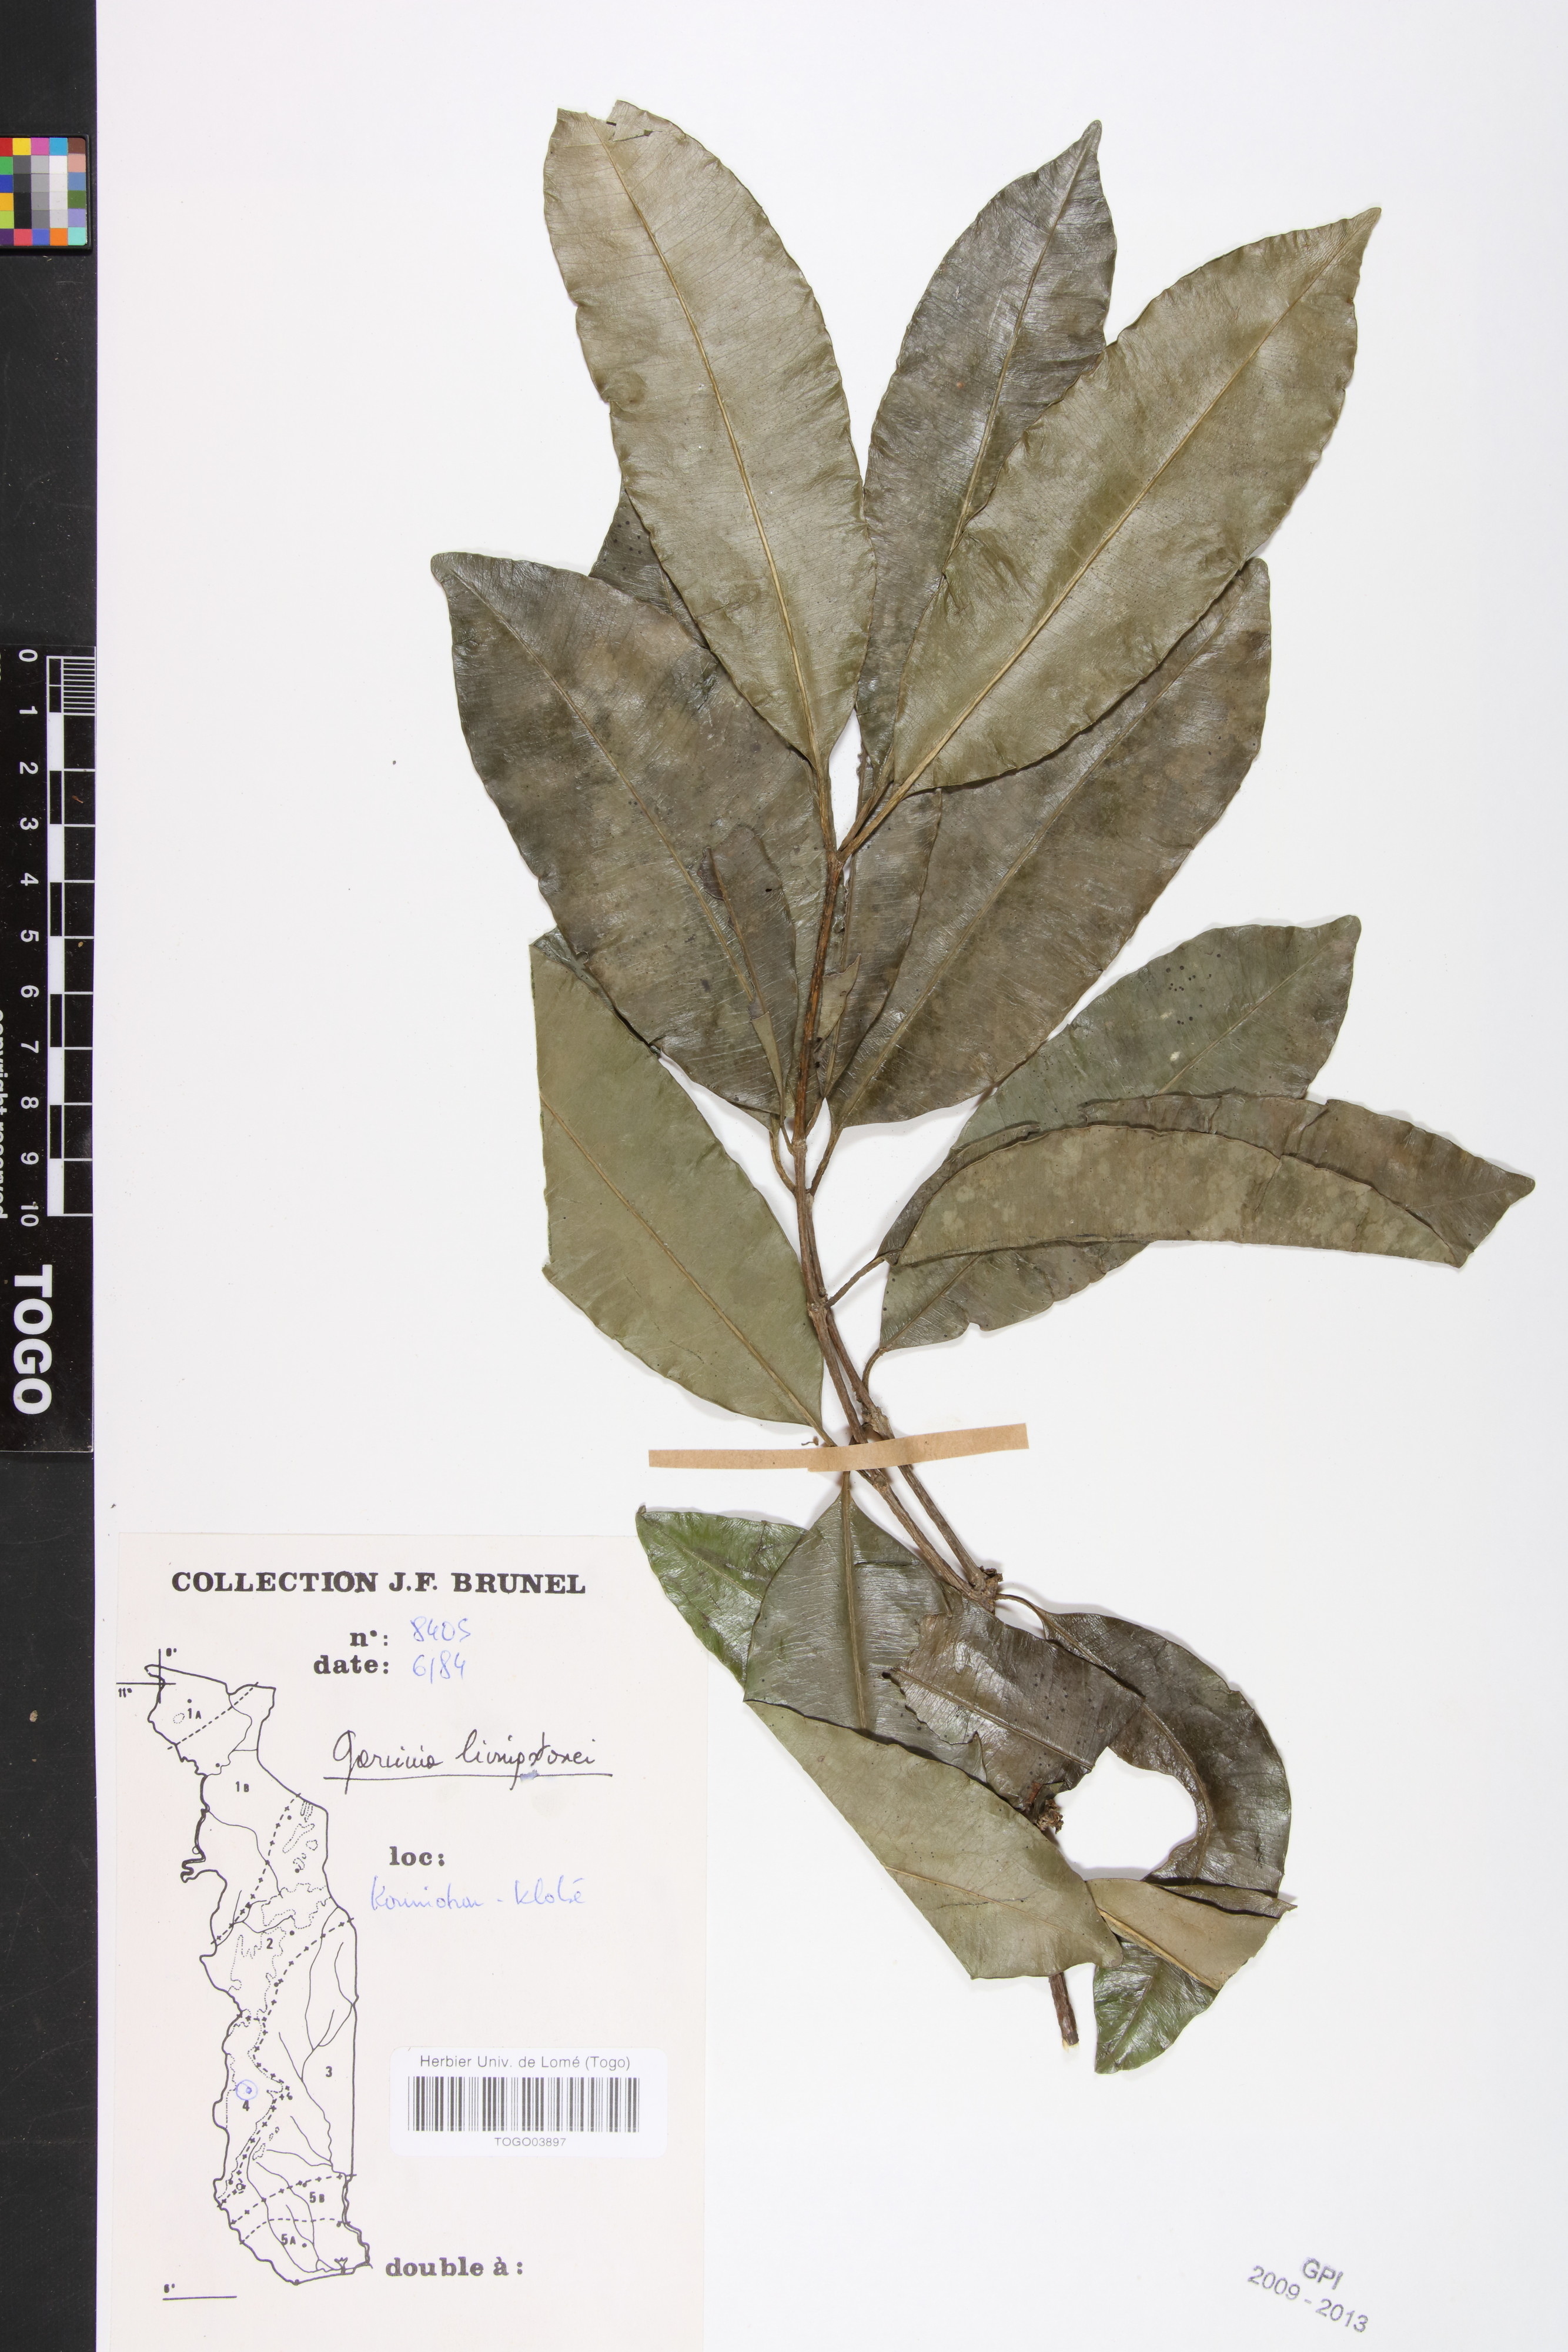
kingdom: Plantae
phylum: Tracheophyta
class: Magnoliopsida
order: Malpighiales
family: Clusiaceae
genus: Garcinia
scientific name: Garcinia livingstonei
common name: African mangosteen
